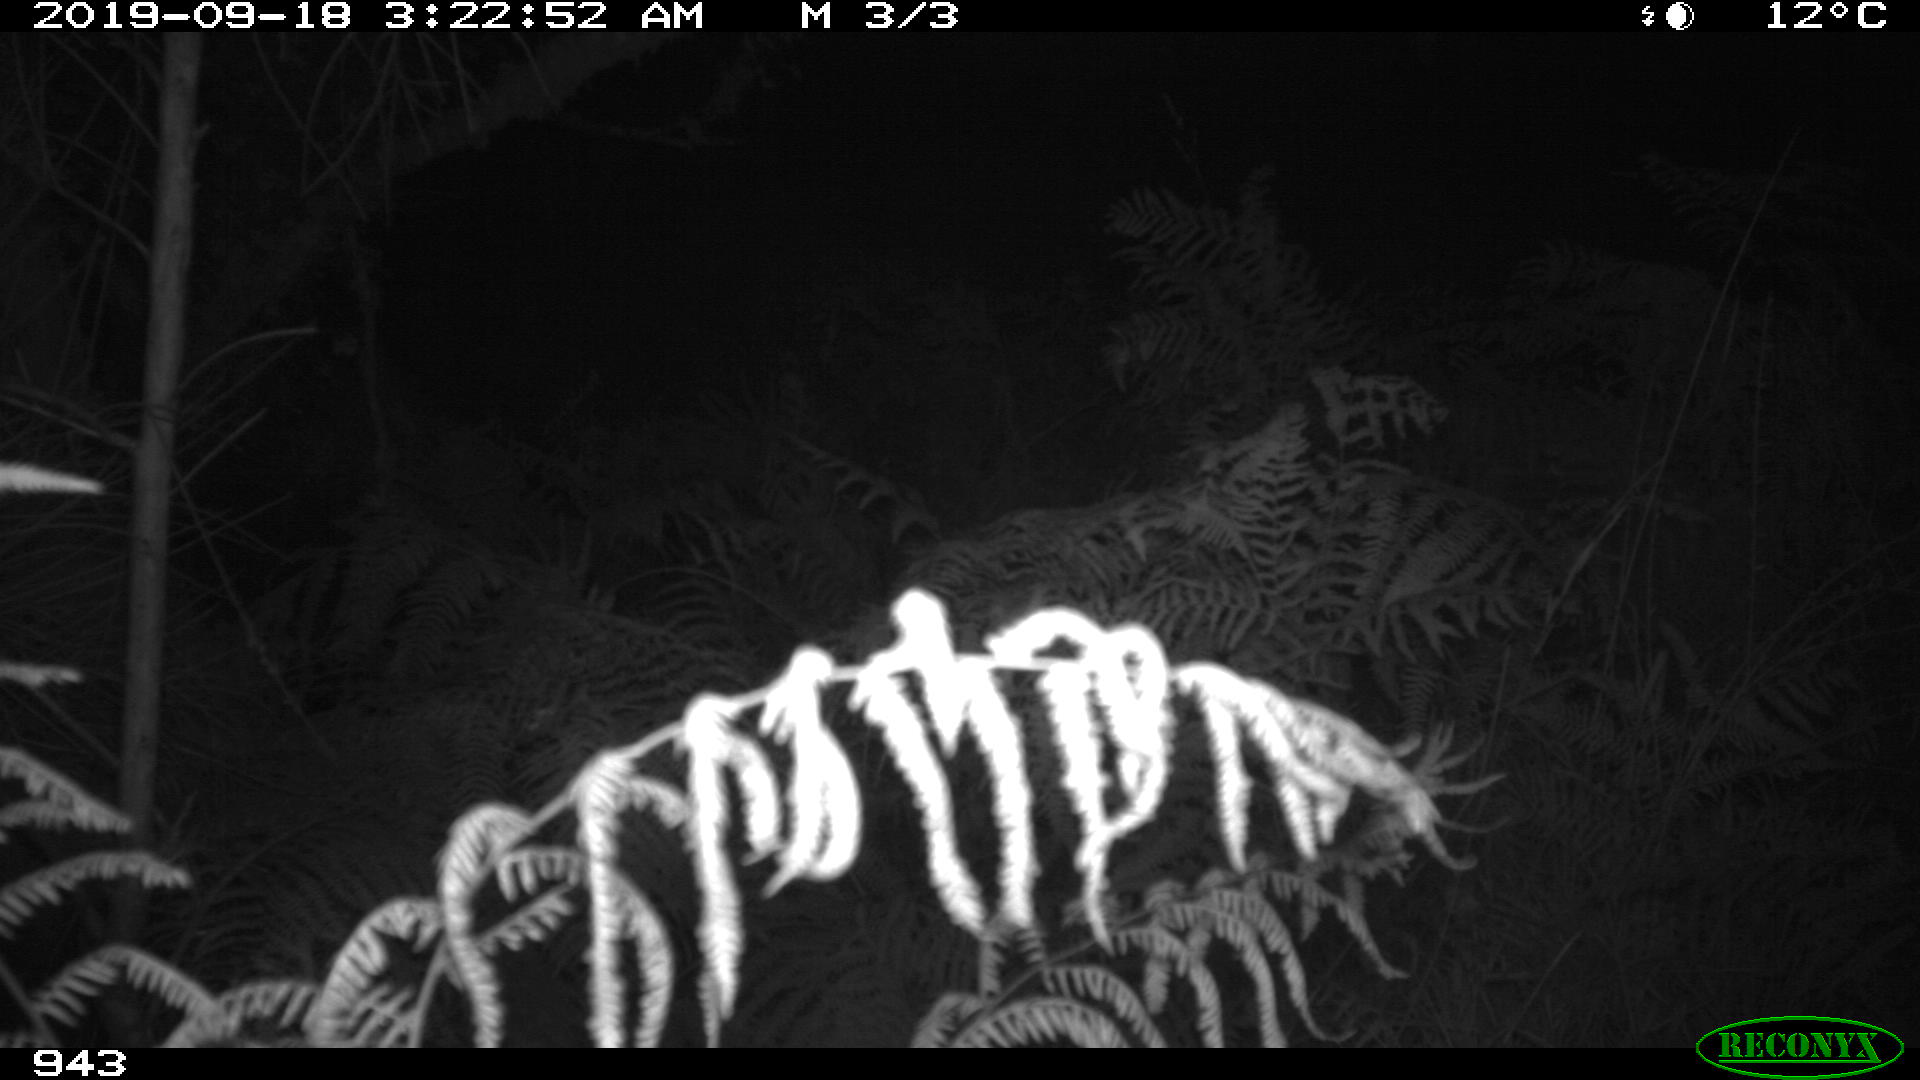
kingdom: Animalia
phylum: Chordata
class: Mammalia
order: Artiodactyla
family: Suidae
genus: Sus
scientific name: Sus scrofa
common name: Wild boar
